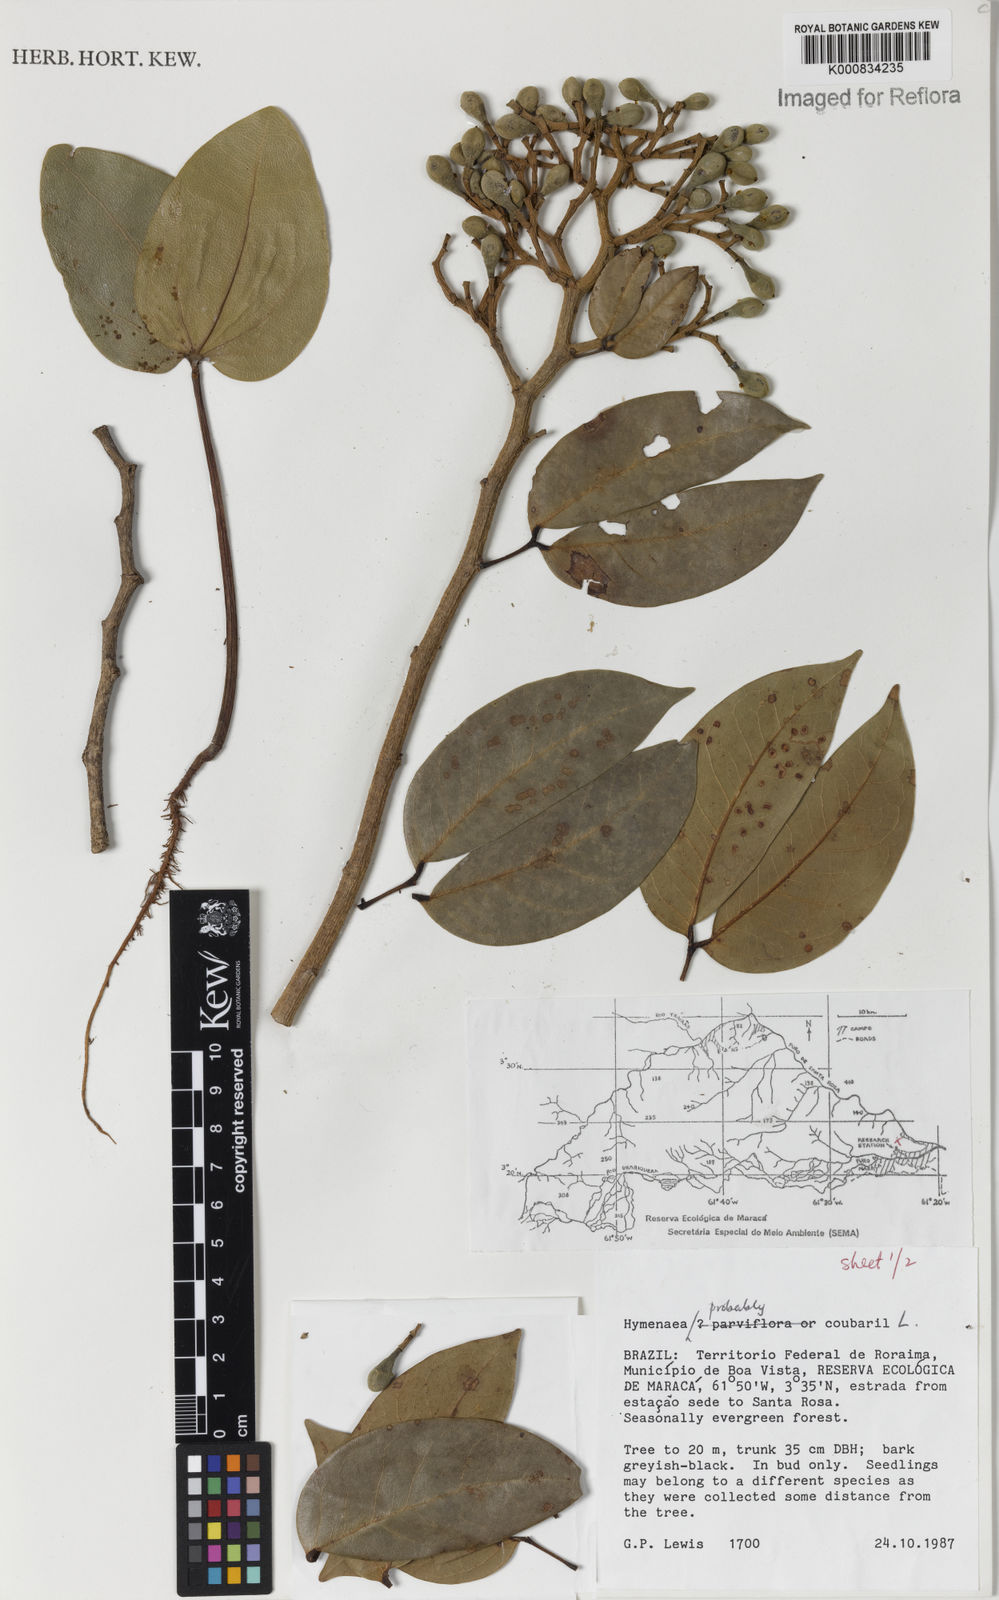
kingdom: Plantae
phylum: Tracheophyta
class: Magnoliopsida
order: Fabales
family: Fabaceae
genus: Hymenaea
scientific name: Hymenaea courbaril
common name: Brazilian copal
